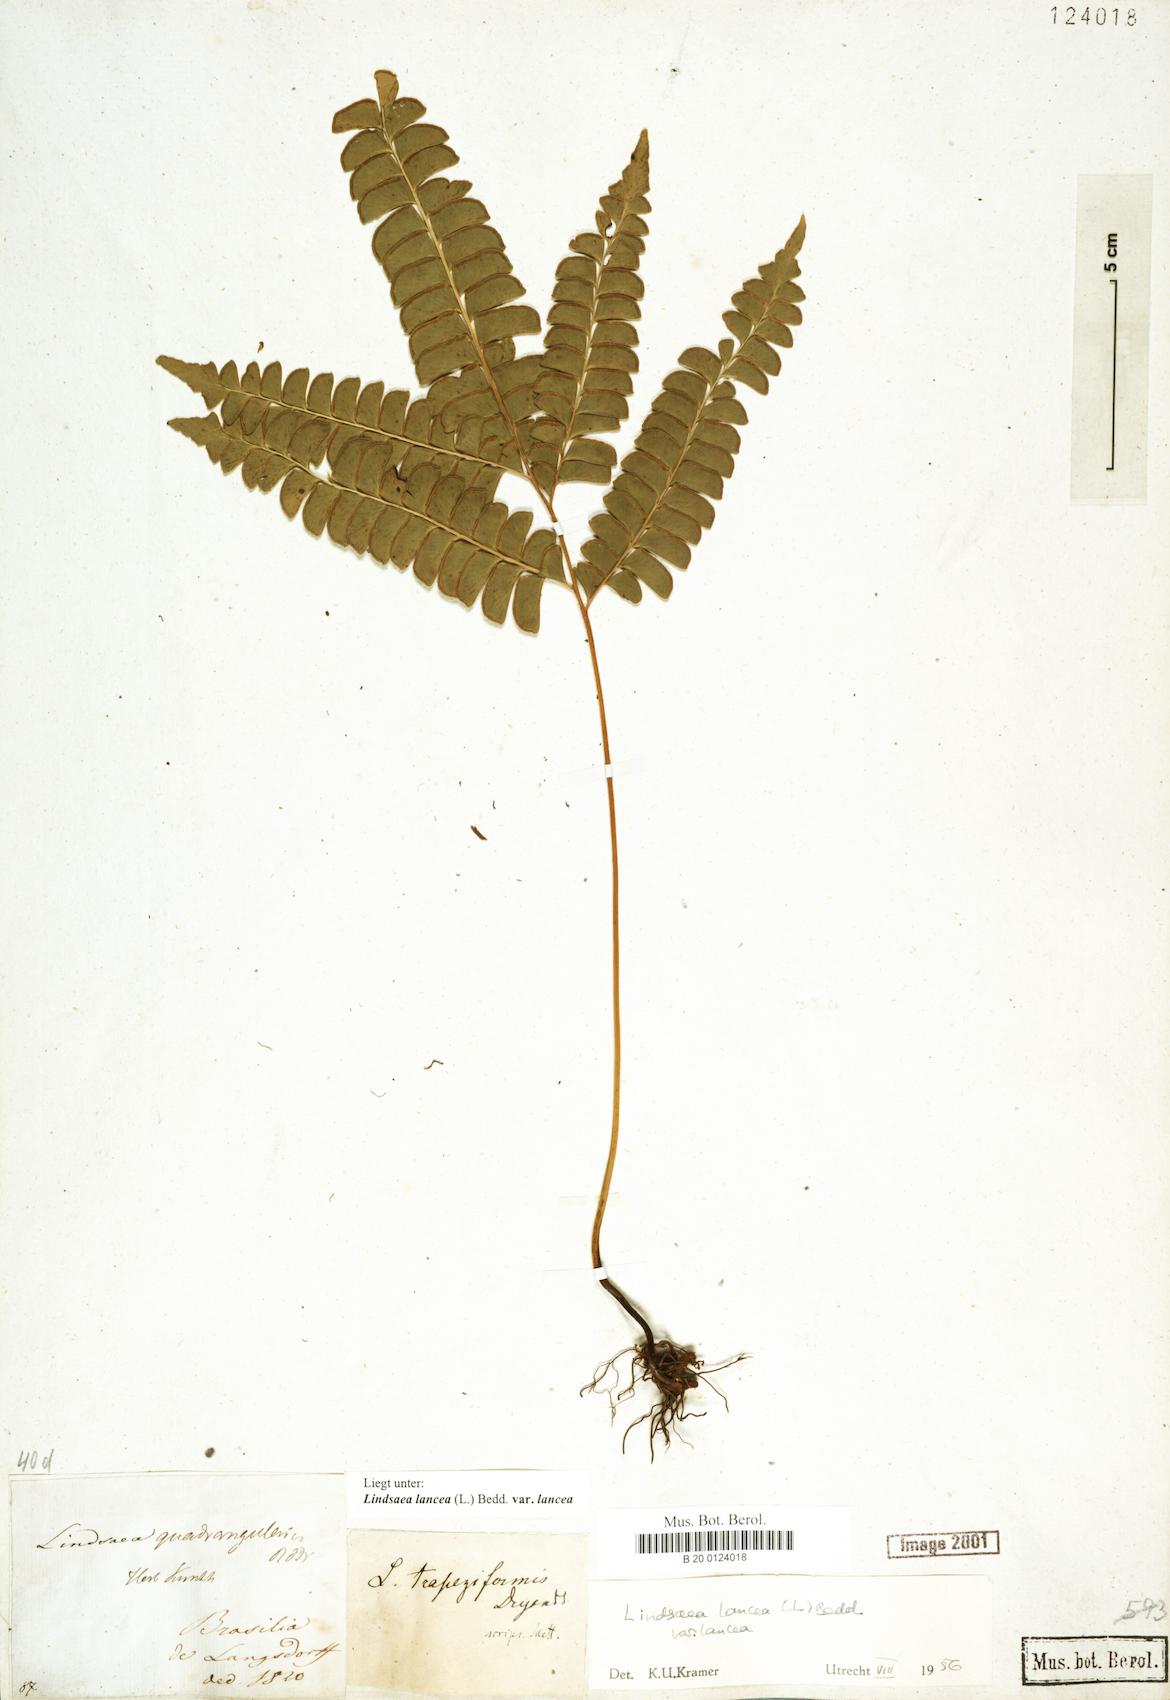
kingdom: Plantae
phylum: Tracheophyta
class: Polypodiopsida
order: Polypodiales
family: Lindsaeaceae
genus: Lindsaea
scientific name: Lindsaea lancea
